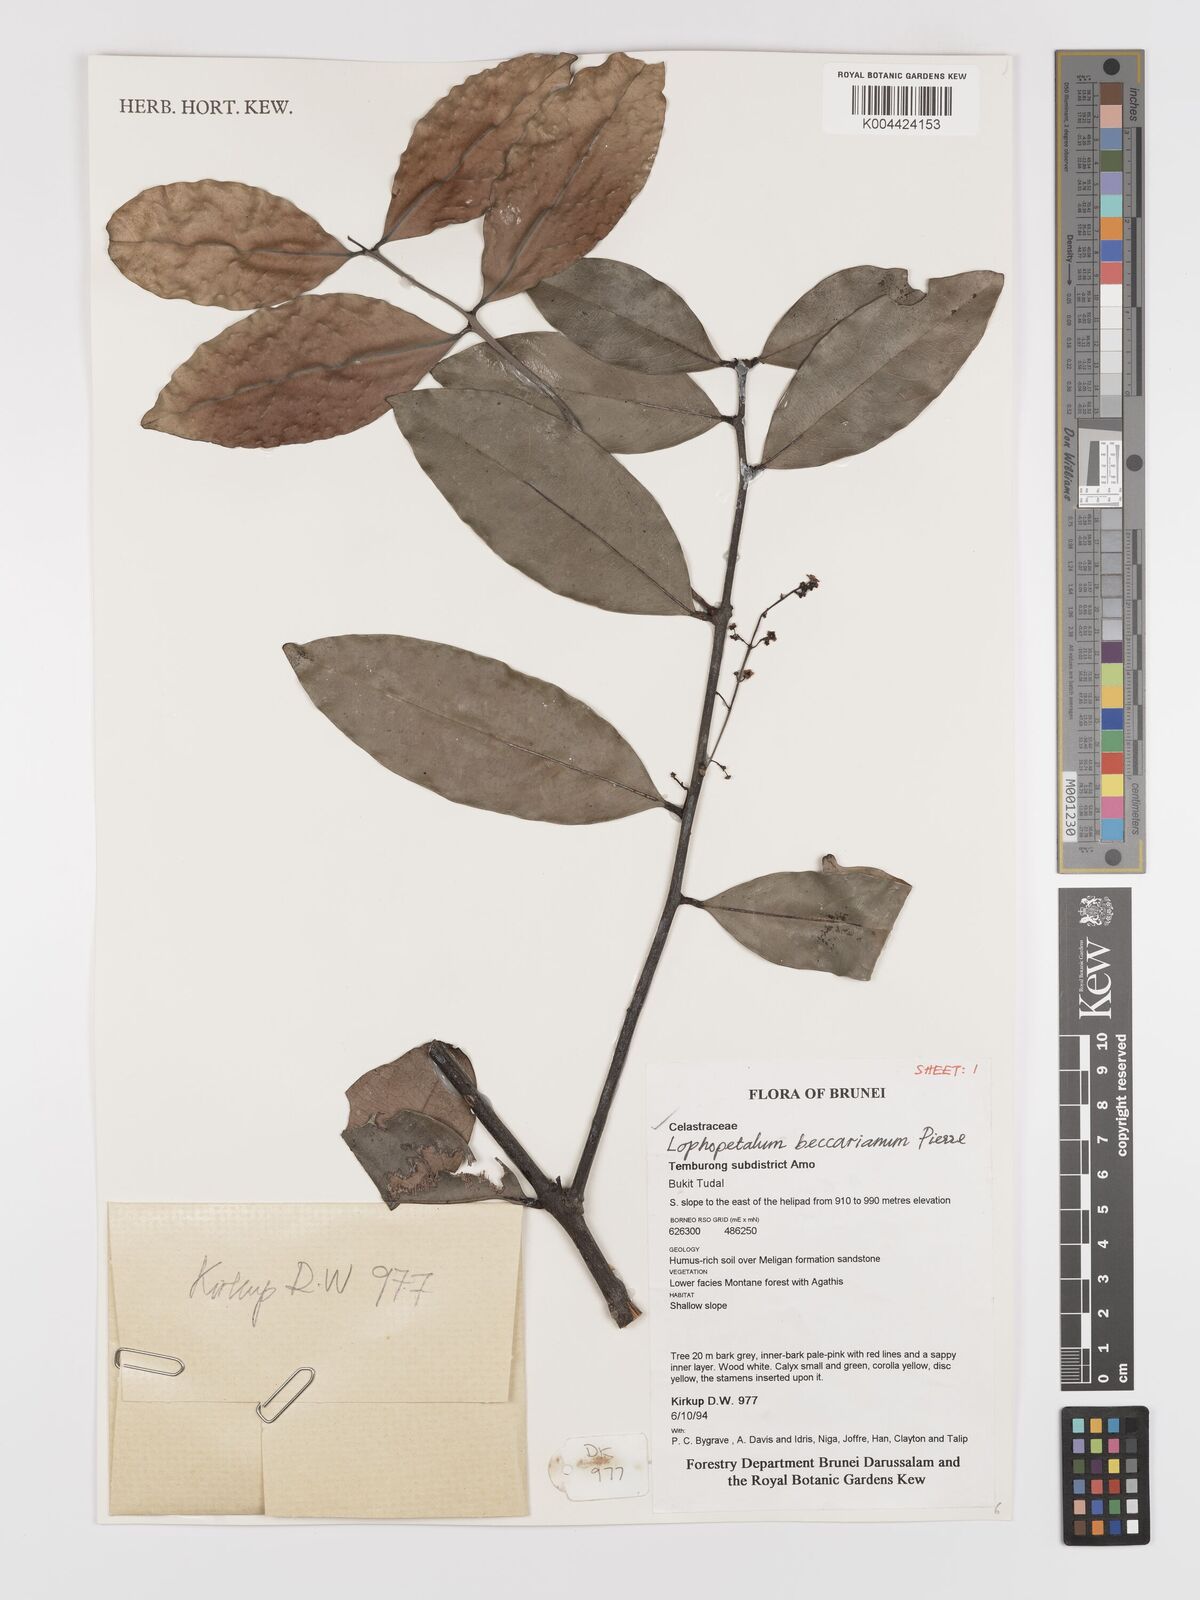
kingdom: Plantae
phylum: Tracheophyta
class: Magnoliopsida
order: Celastrales
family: Celastraceae
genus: Lophopetalum
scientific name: Lophopetalum beccarianum
